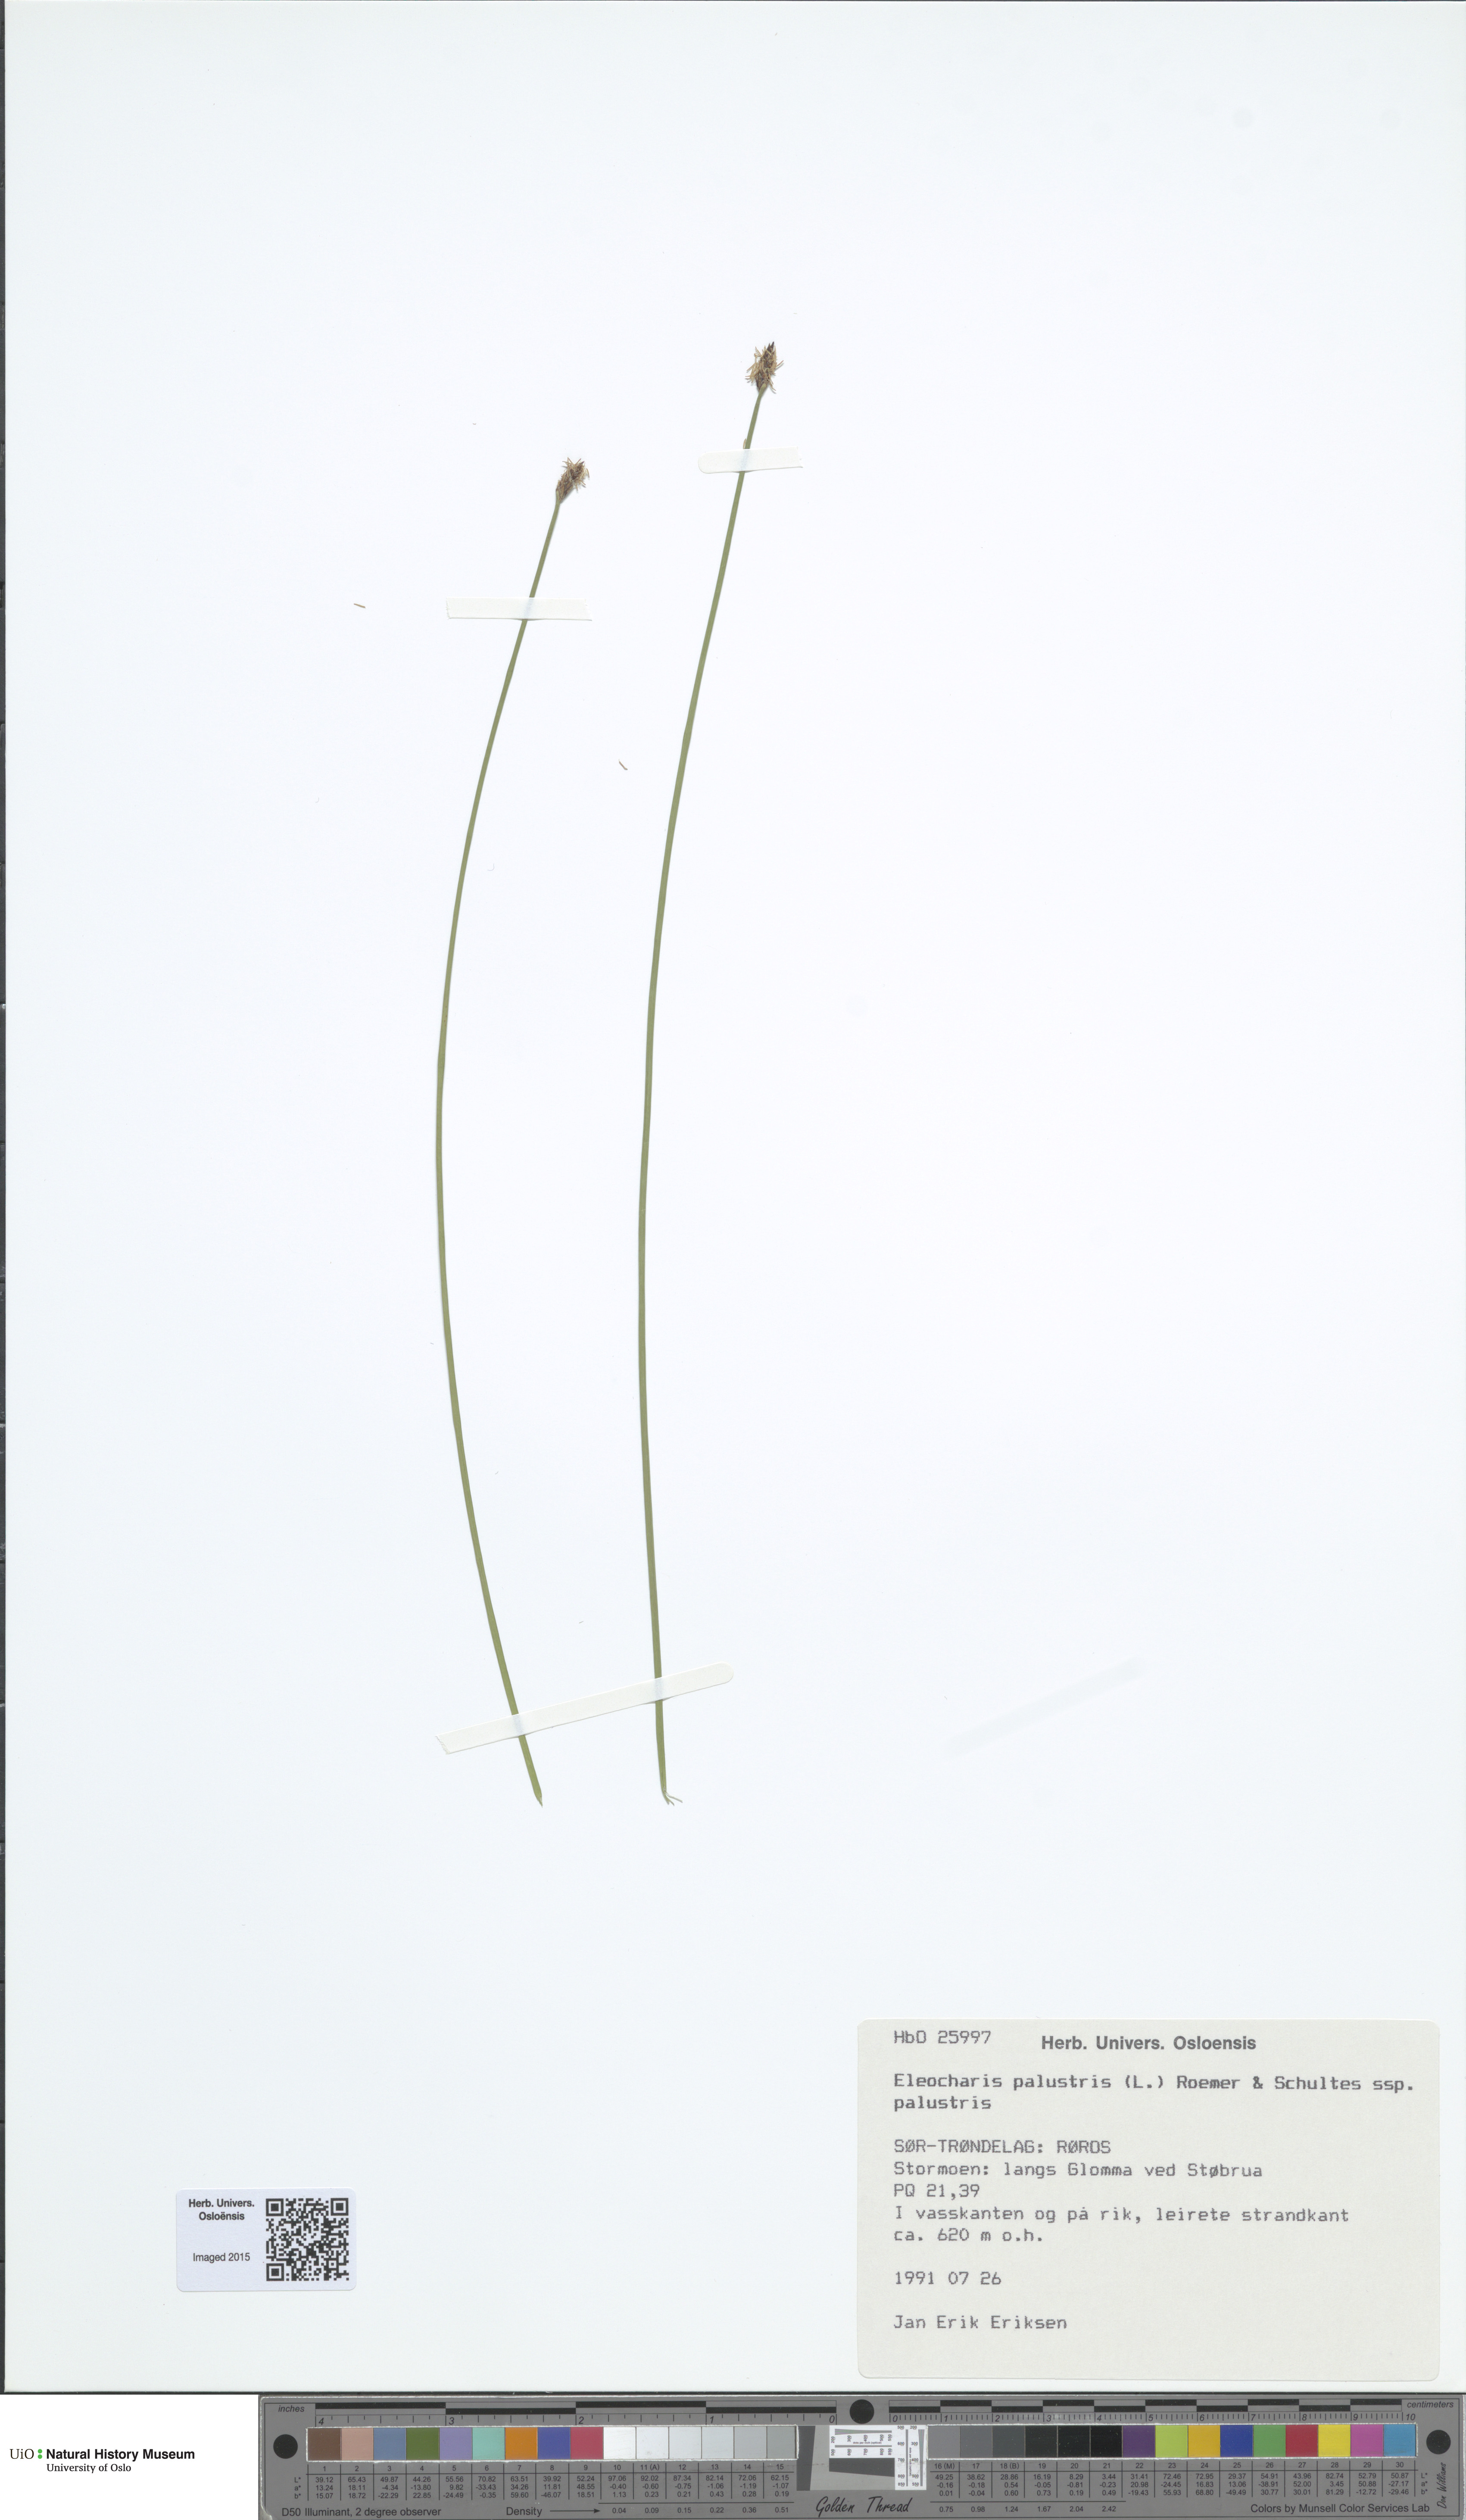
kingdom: Plantae
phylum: Tracheophyta
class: Liliopsida
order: Poales
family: Cyperaceae
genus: Eleocharis
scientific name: Eleocharis palustris
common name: Common spike-rush
